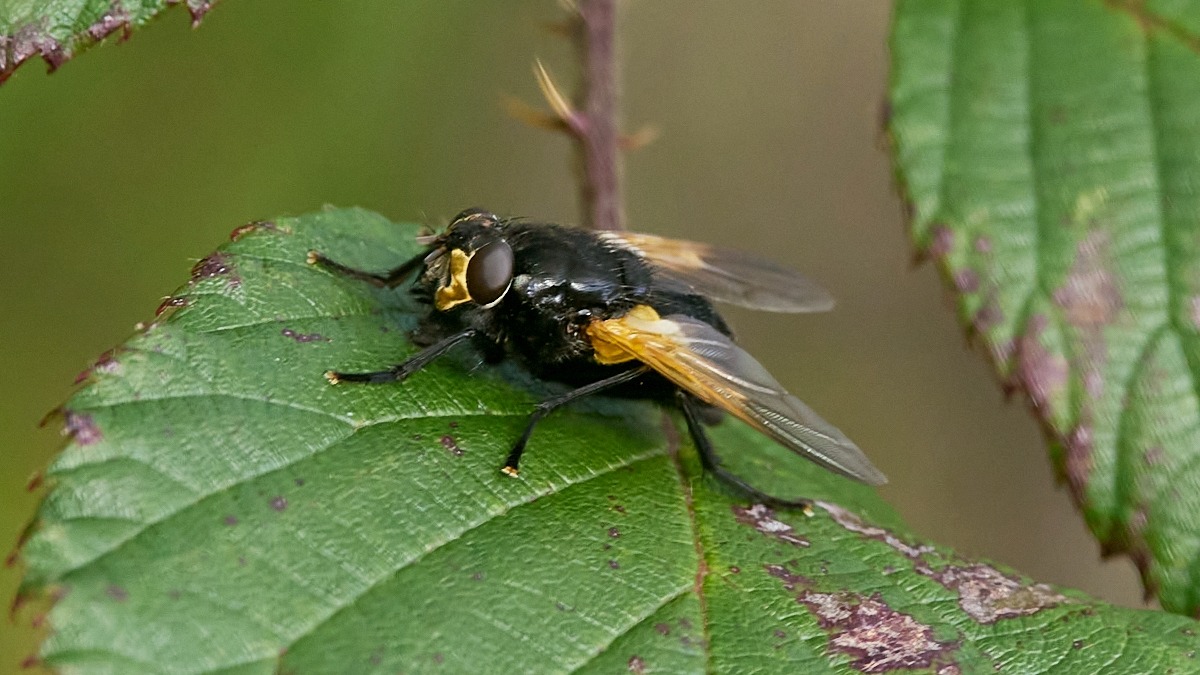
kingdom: Animalia
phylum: Arthropoda
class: Insecta
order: Diptera
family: Muscidae
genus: Mesembrina
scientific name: Mesembrina meridiana
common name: Gulvinget flue
